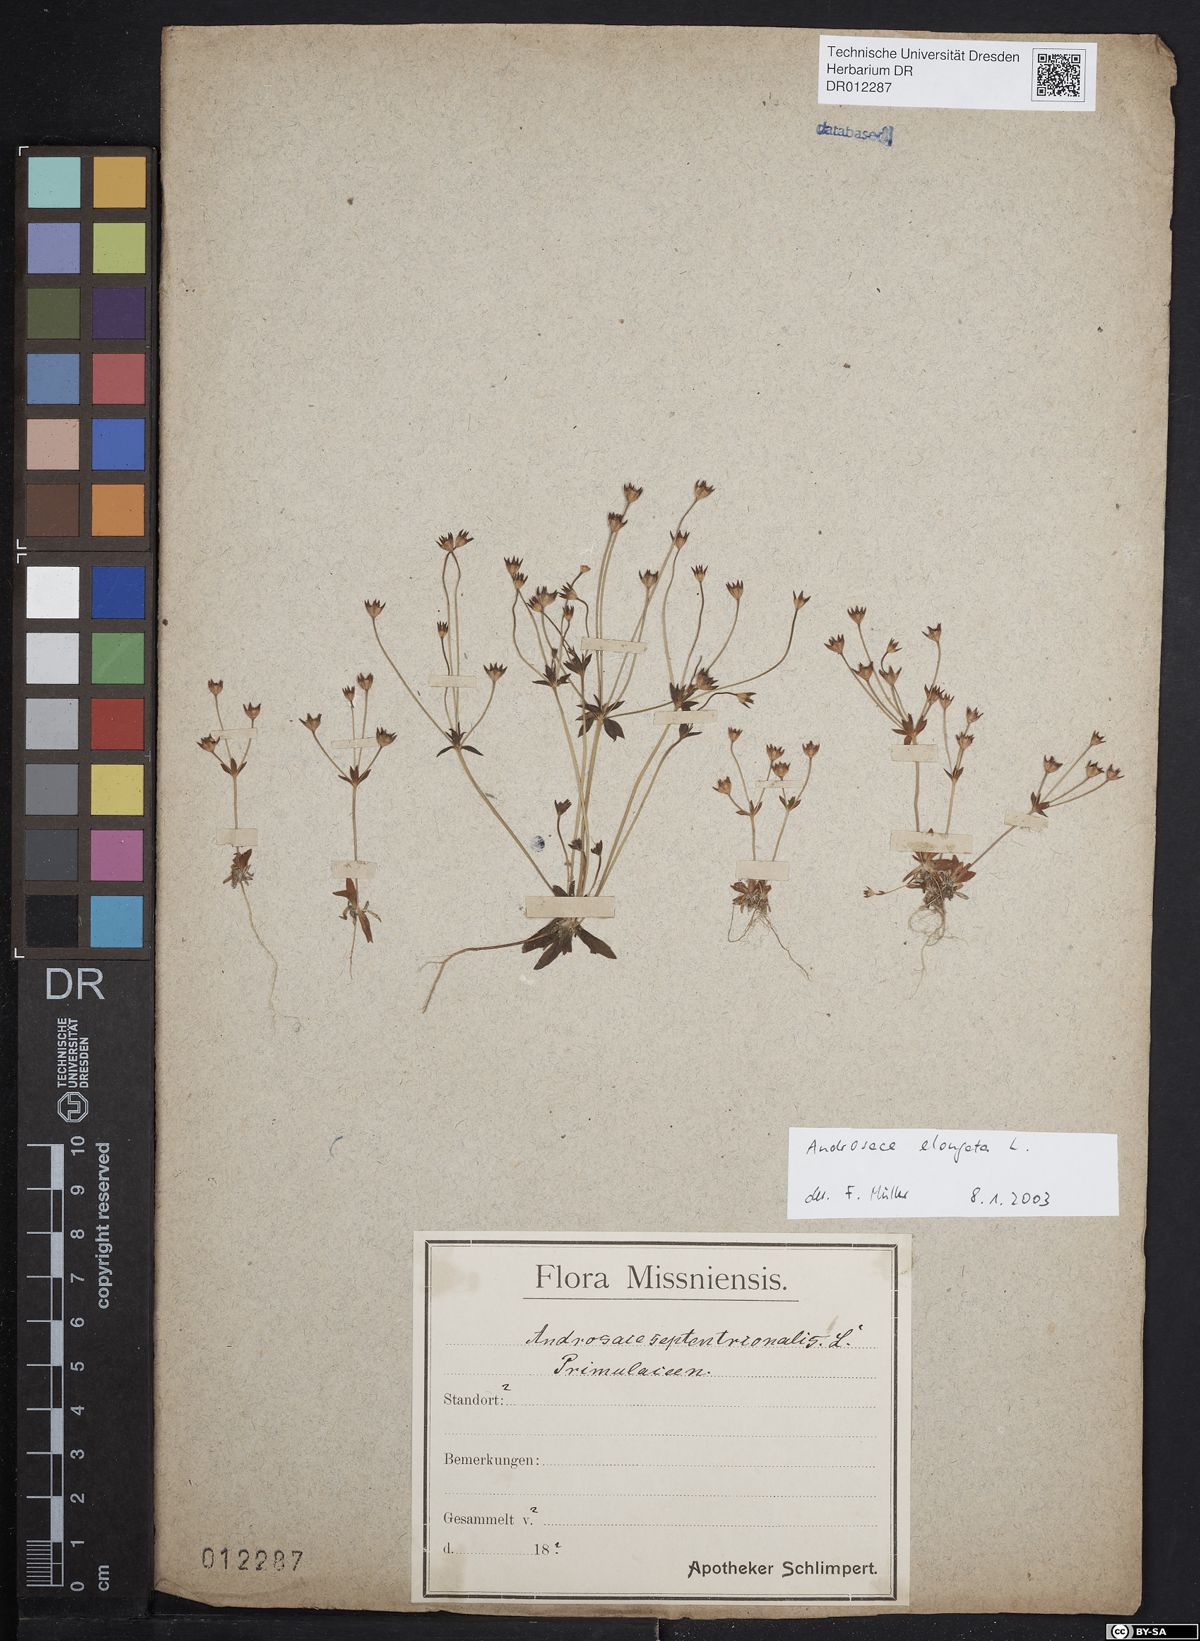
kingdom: Plantae
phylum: Tracheophyta
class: Magnoliopsida
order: Ericales
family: Primulaceae
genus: Androsace
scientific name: Androsace elongata
